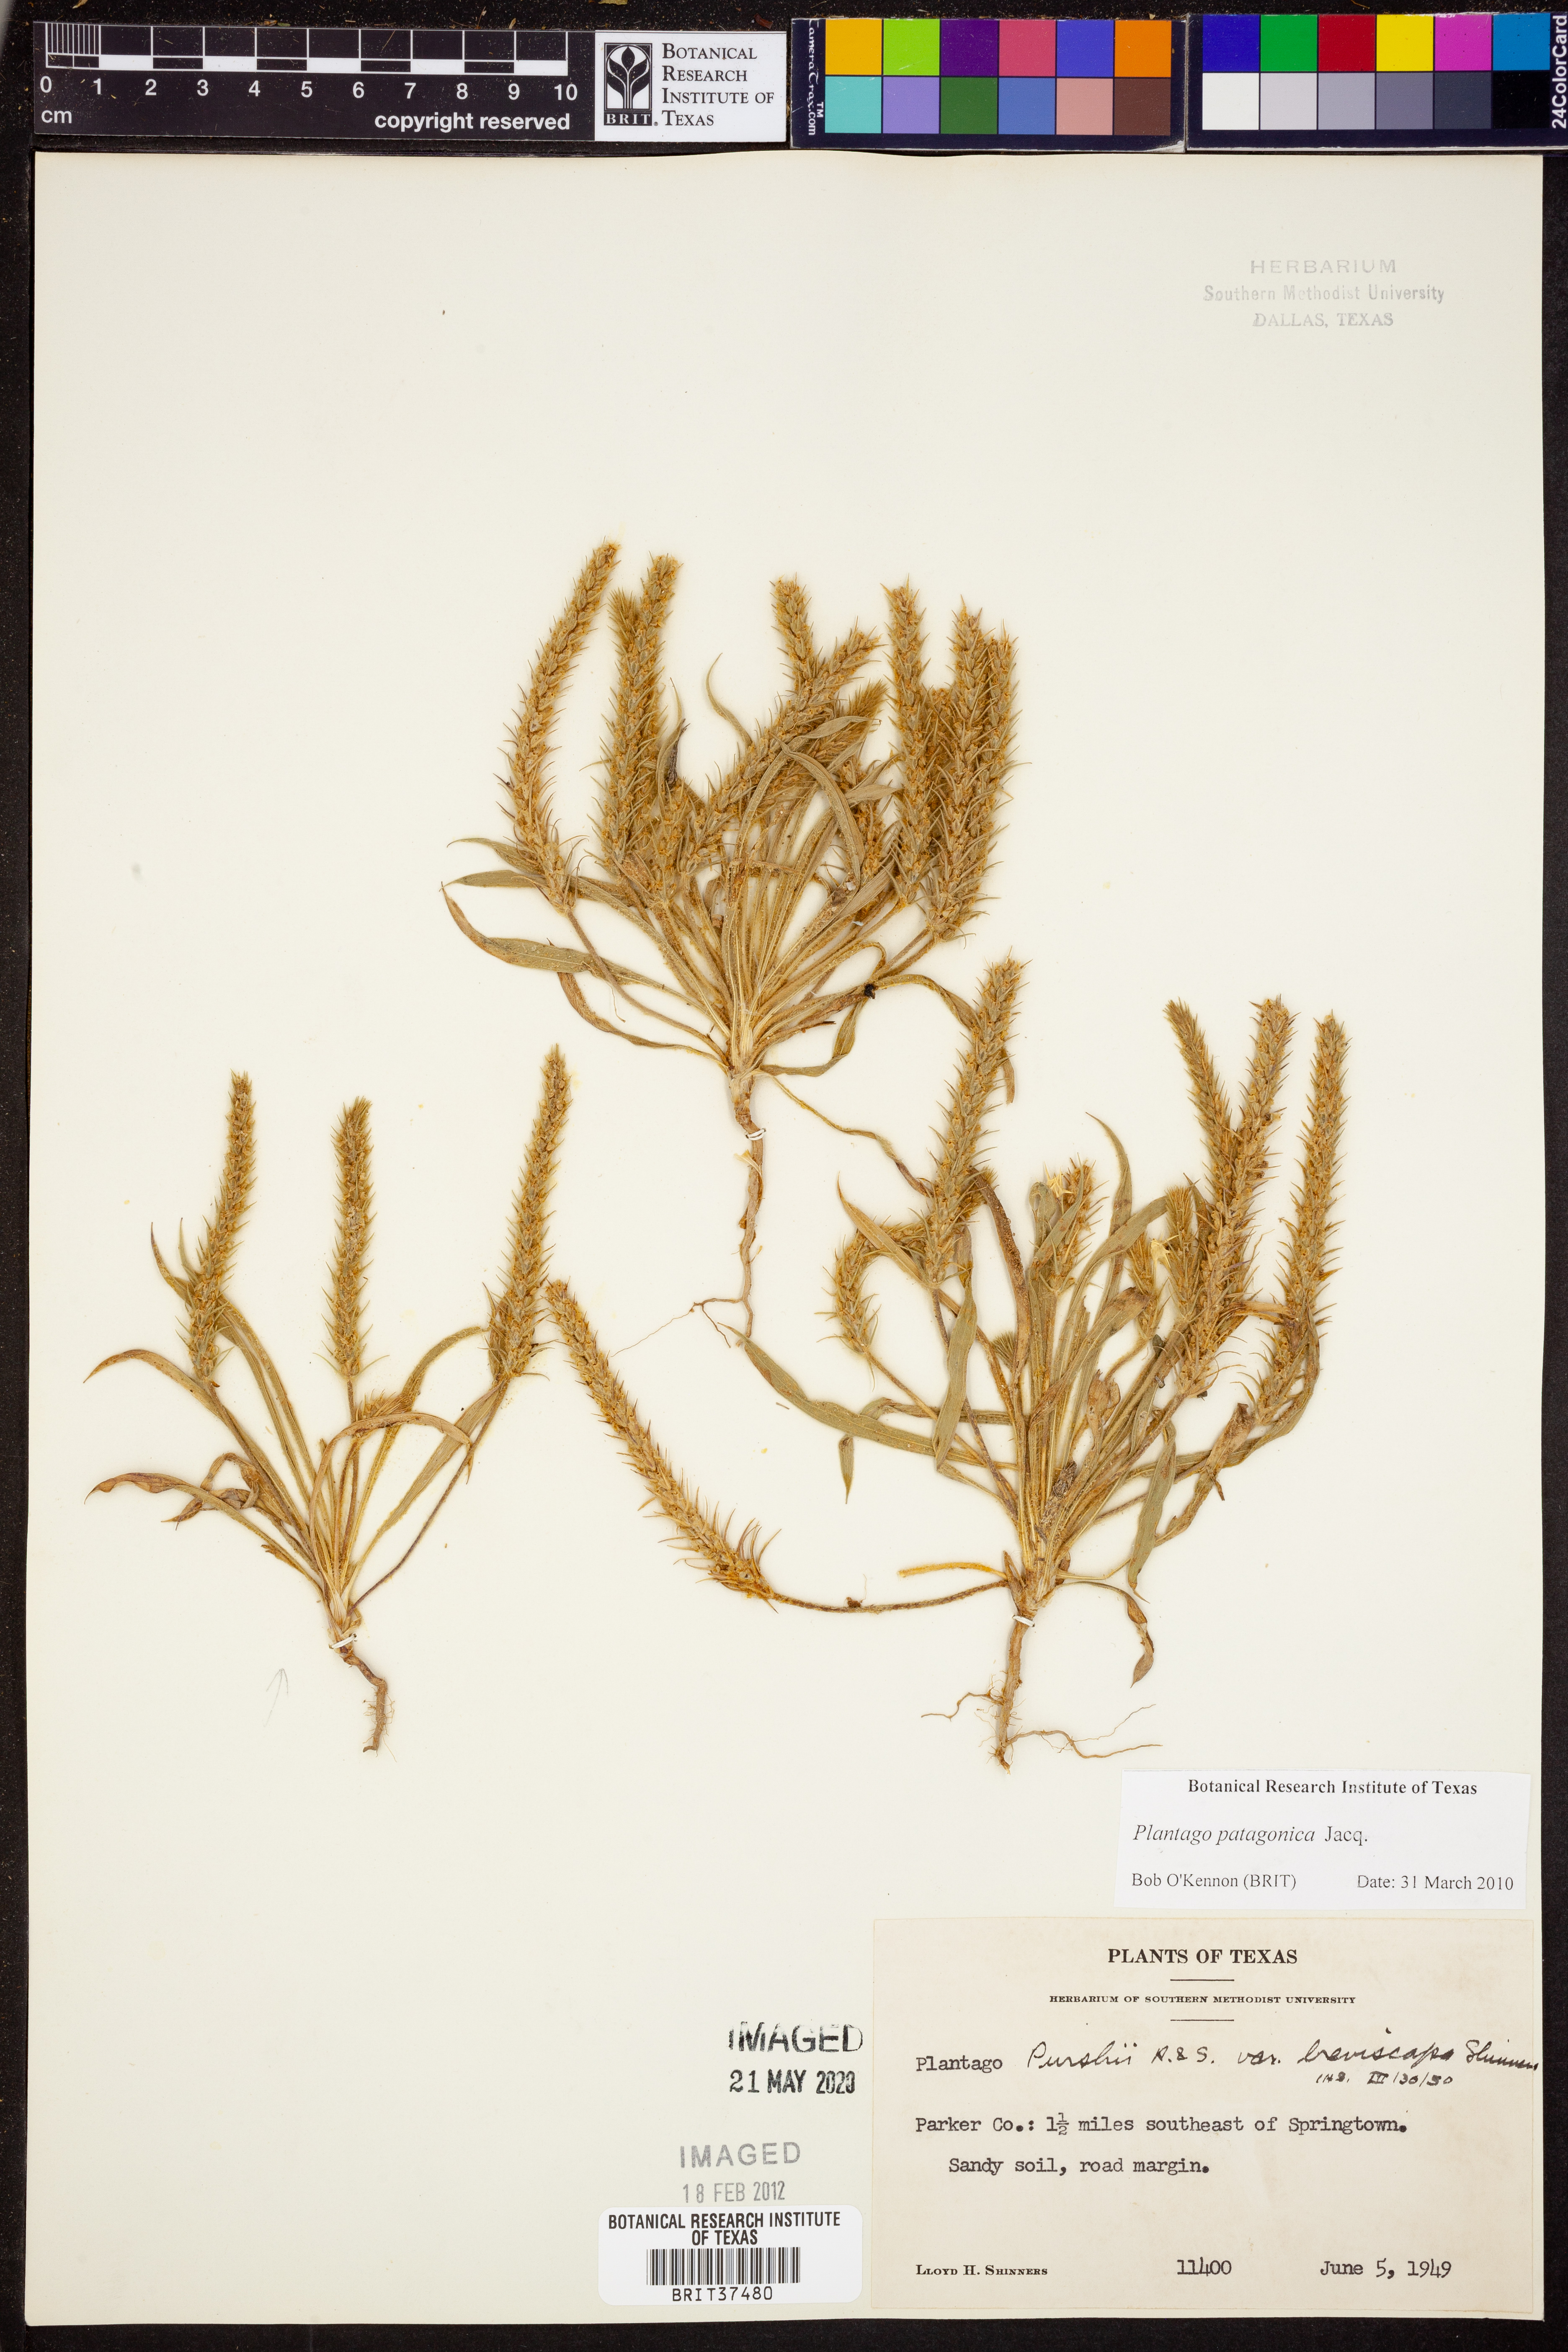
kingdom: Plantae
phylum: Tracheophyta
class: Magnoliopsida
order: Lamiales
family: Plantaginaceae
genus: Plantago
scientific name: Plantago patagonica
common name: Patagonia indian-wheat
